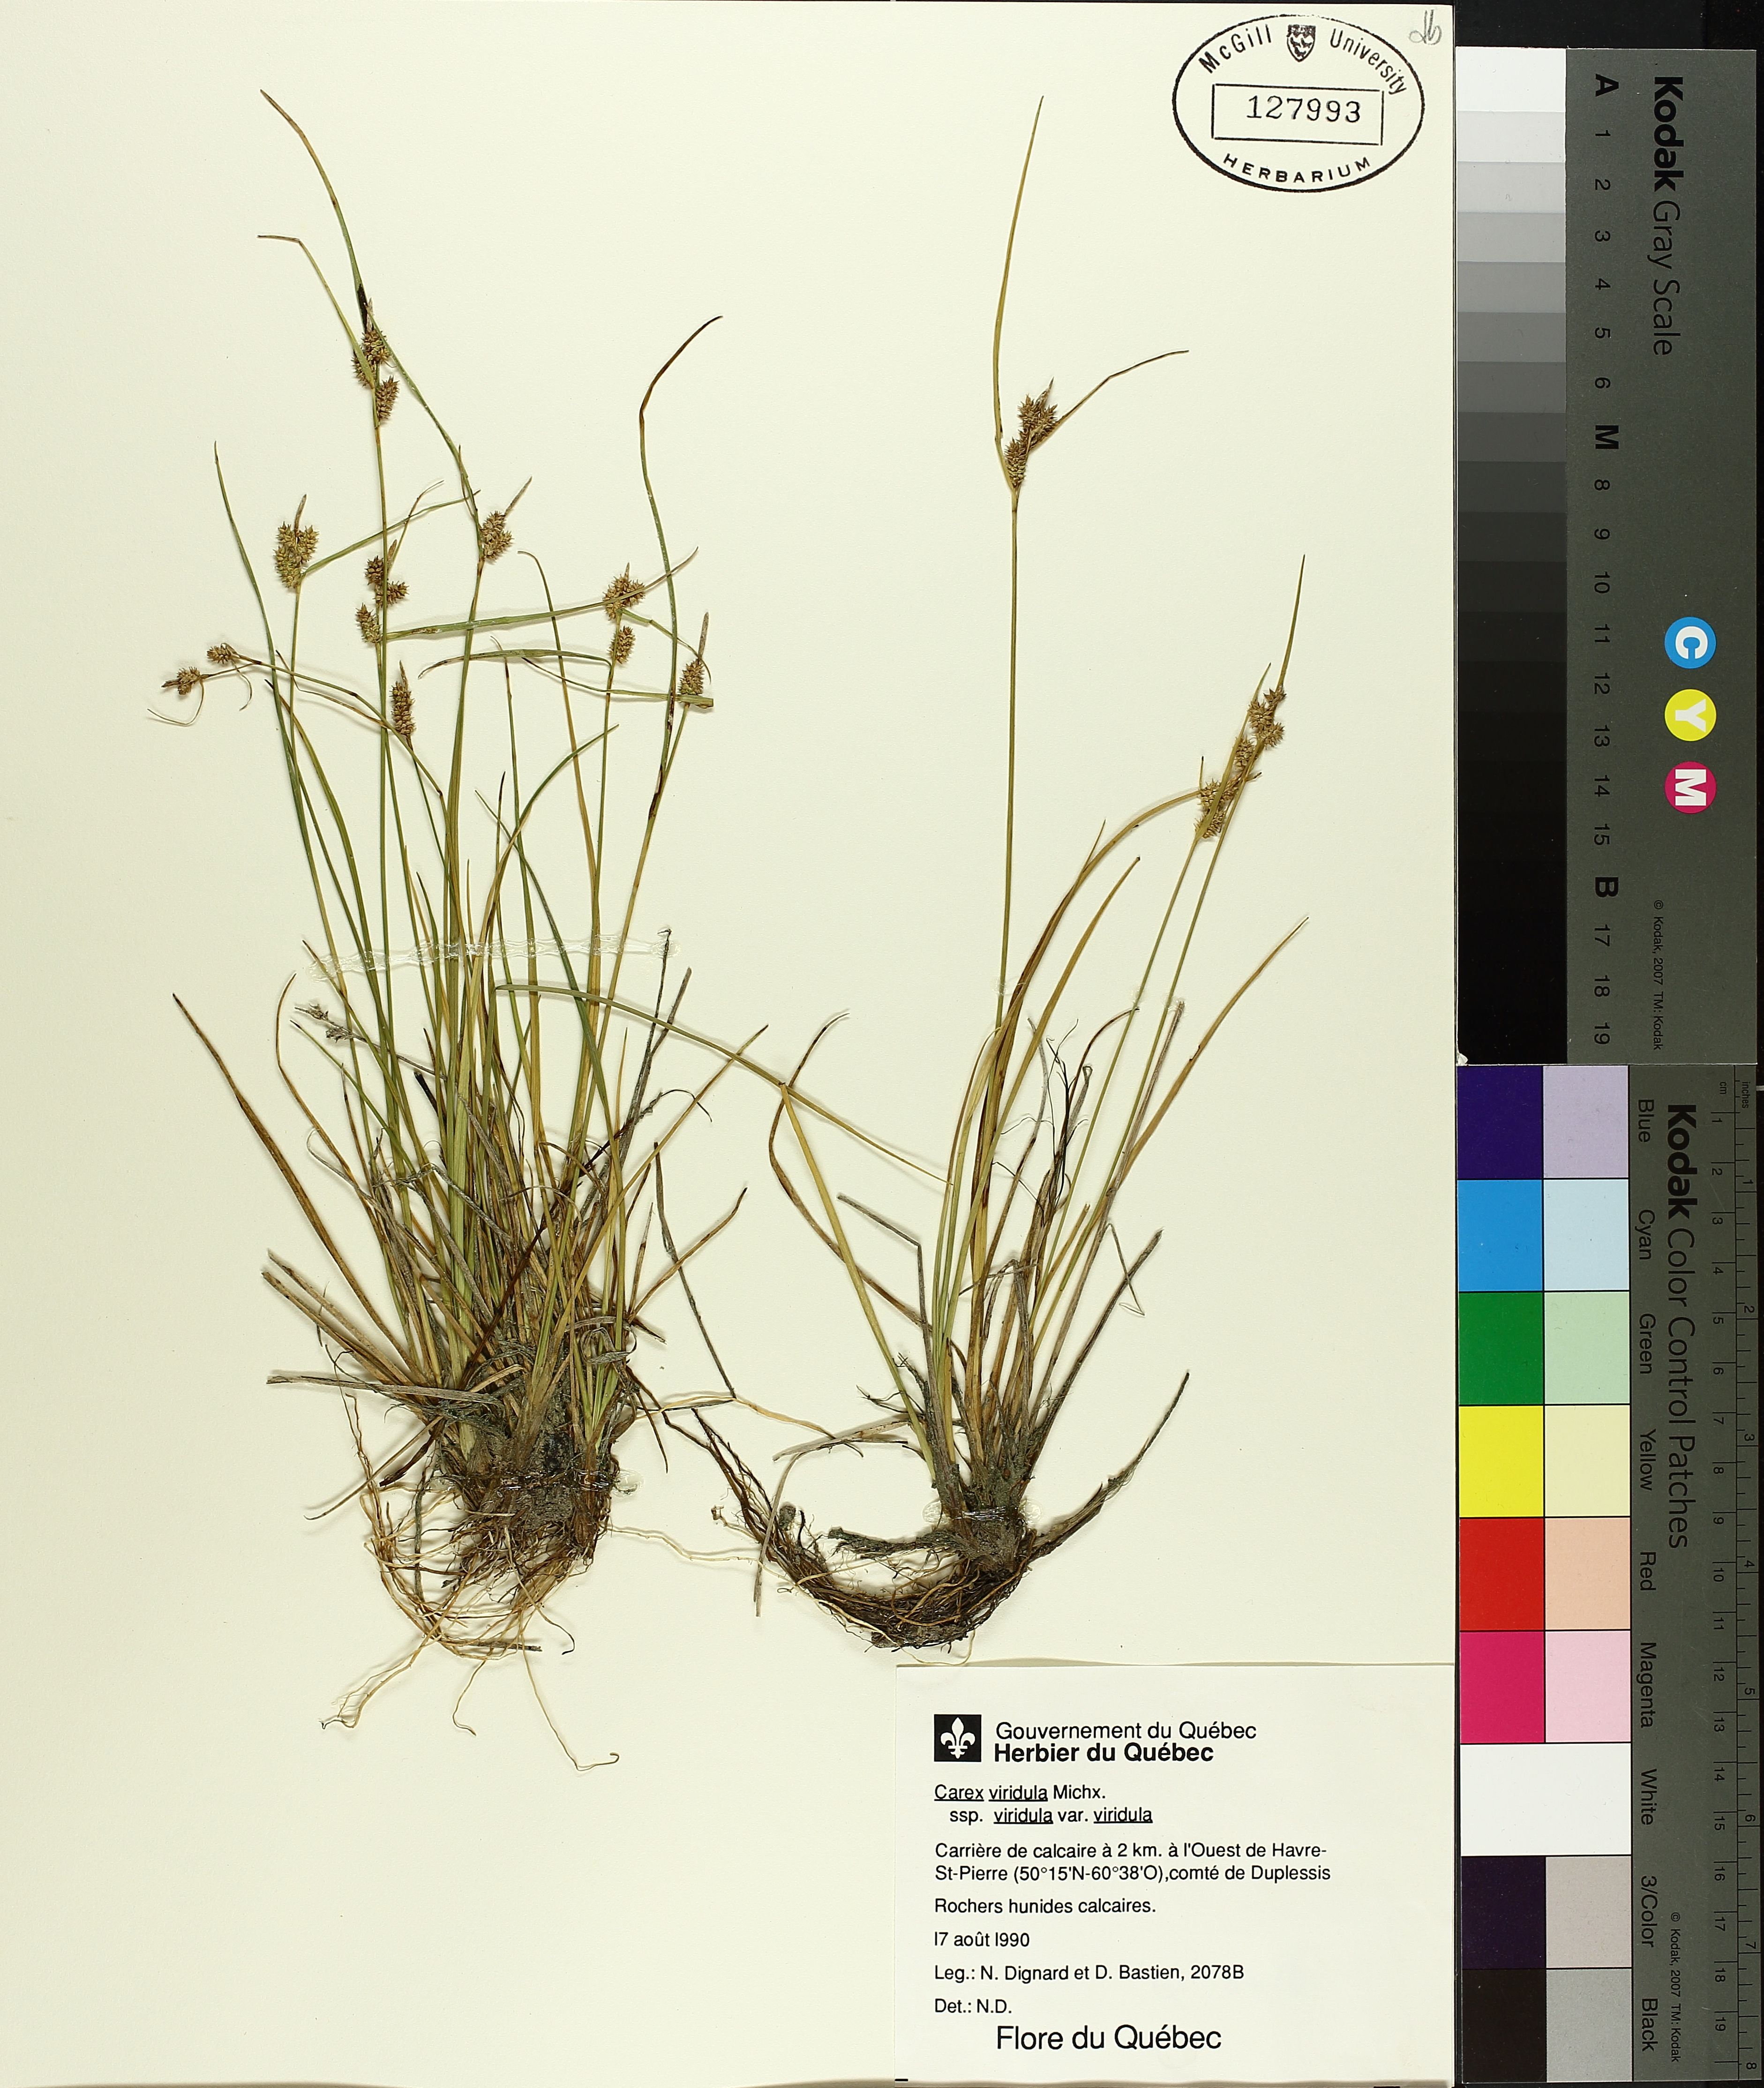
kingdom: Plantae
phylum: Tracheophyta
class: Liliopsida
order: Poales
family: Cyperaceae
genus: Carex
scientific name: Carex oederi
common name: Common & small-fruited yellow-sedge
